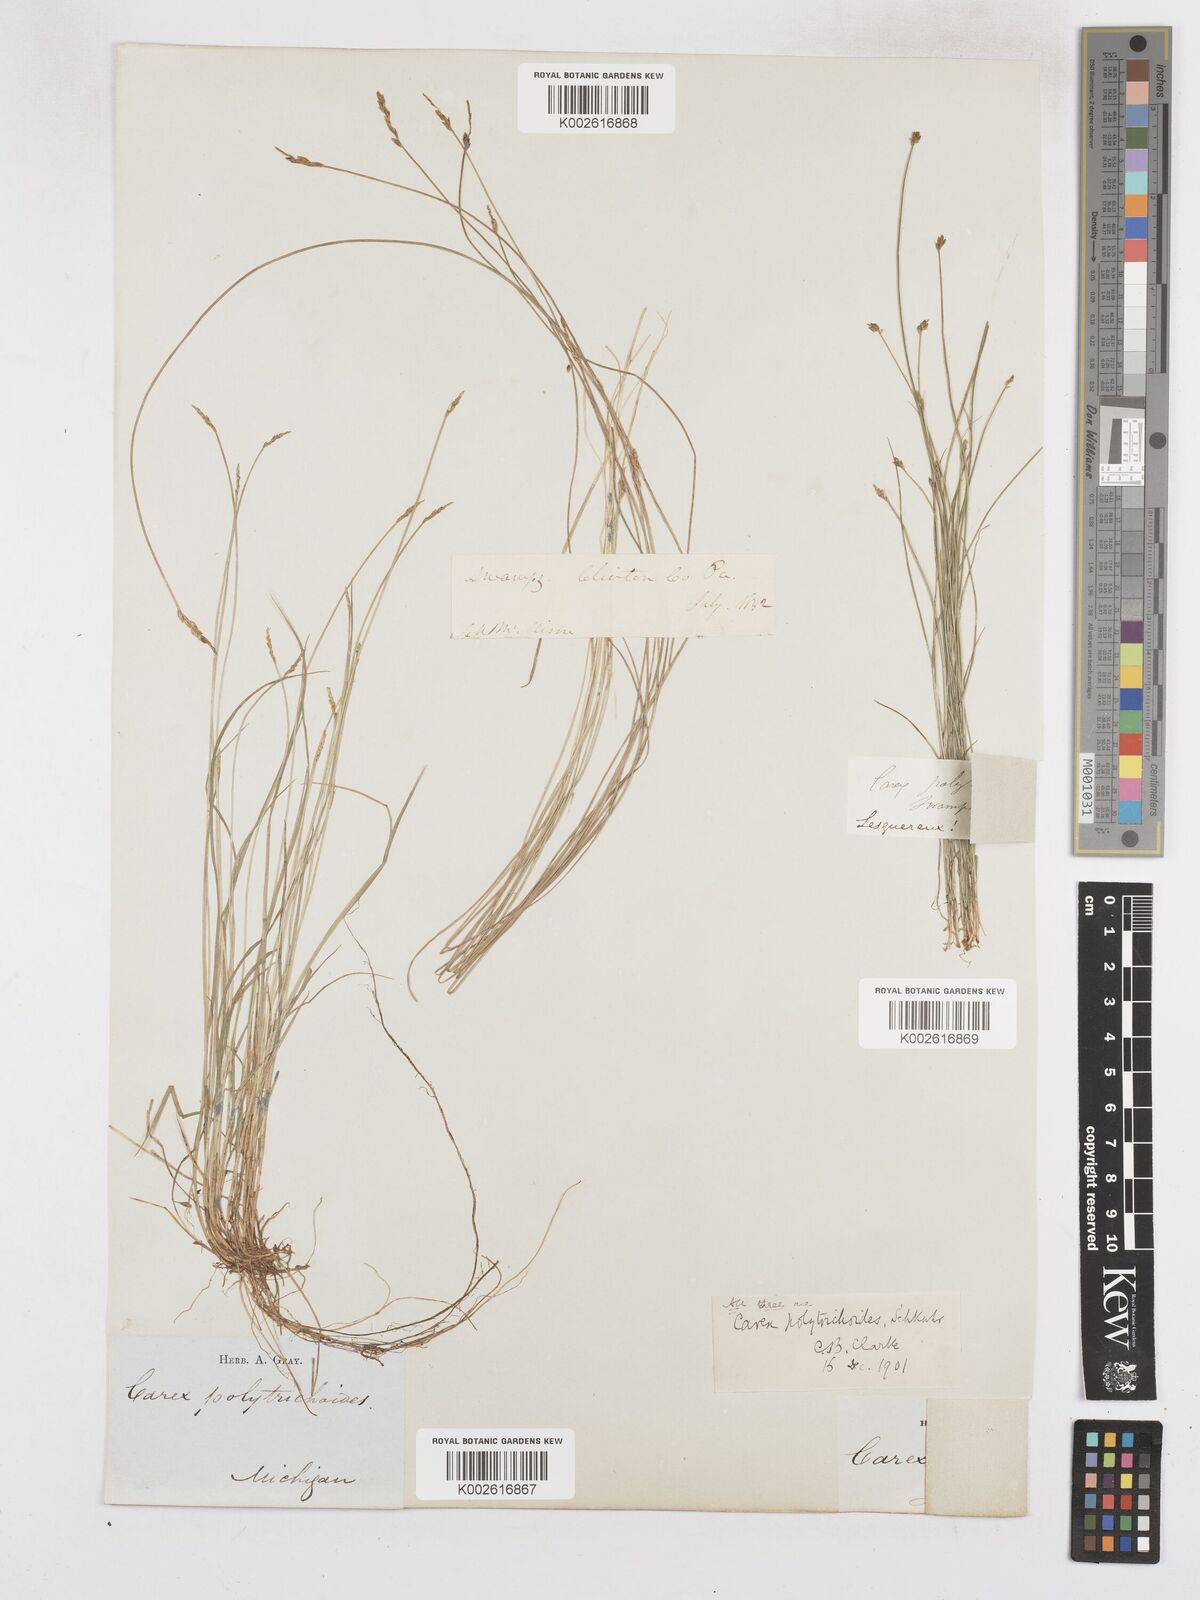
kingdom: Plantae
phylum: Tracheophyta
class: Liliopsida
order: Poales
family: Cyperaceae
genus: Carex
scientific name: Carex leptalea
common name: Bristly-stalked sedge
